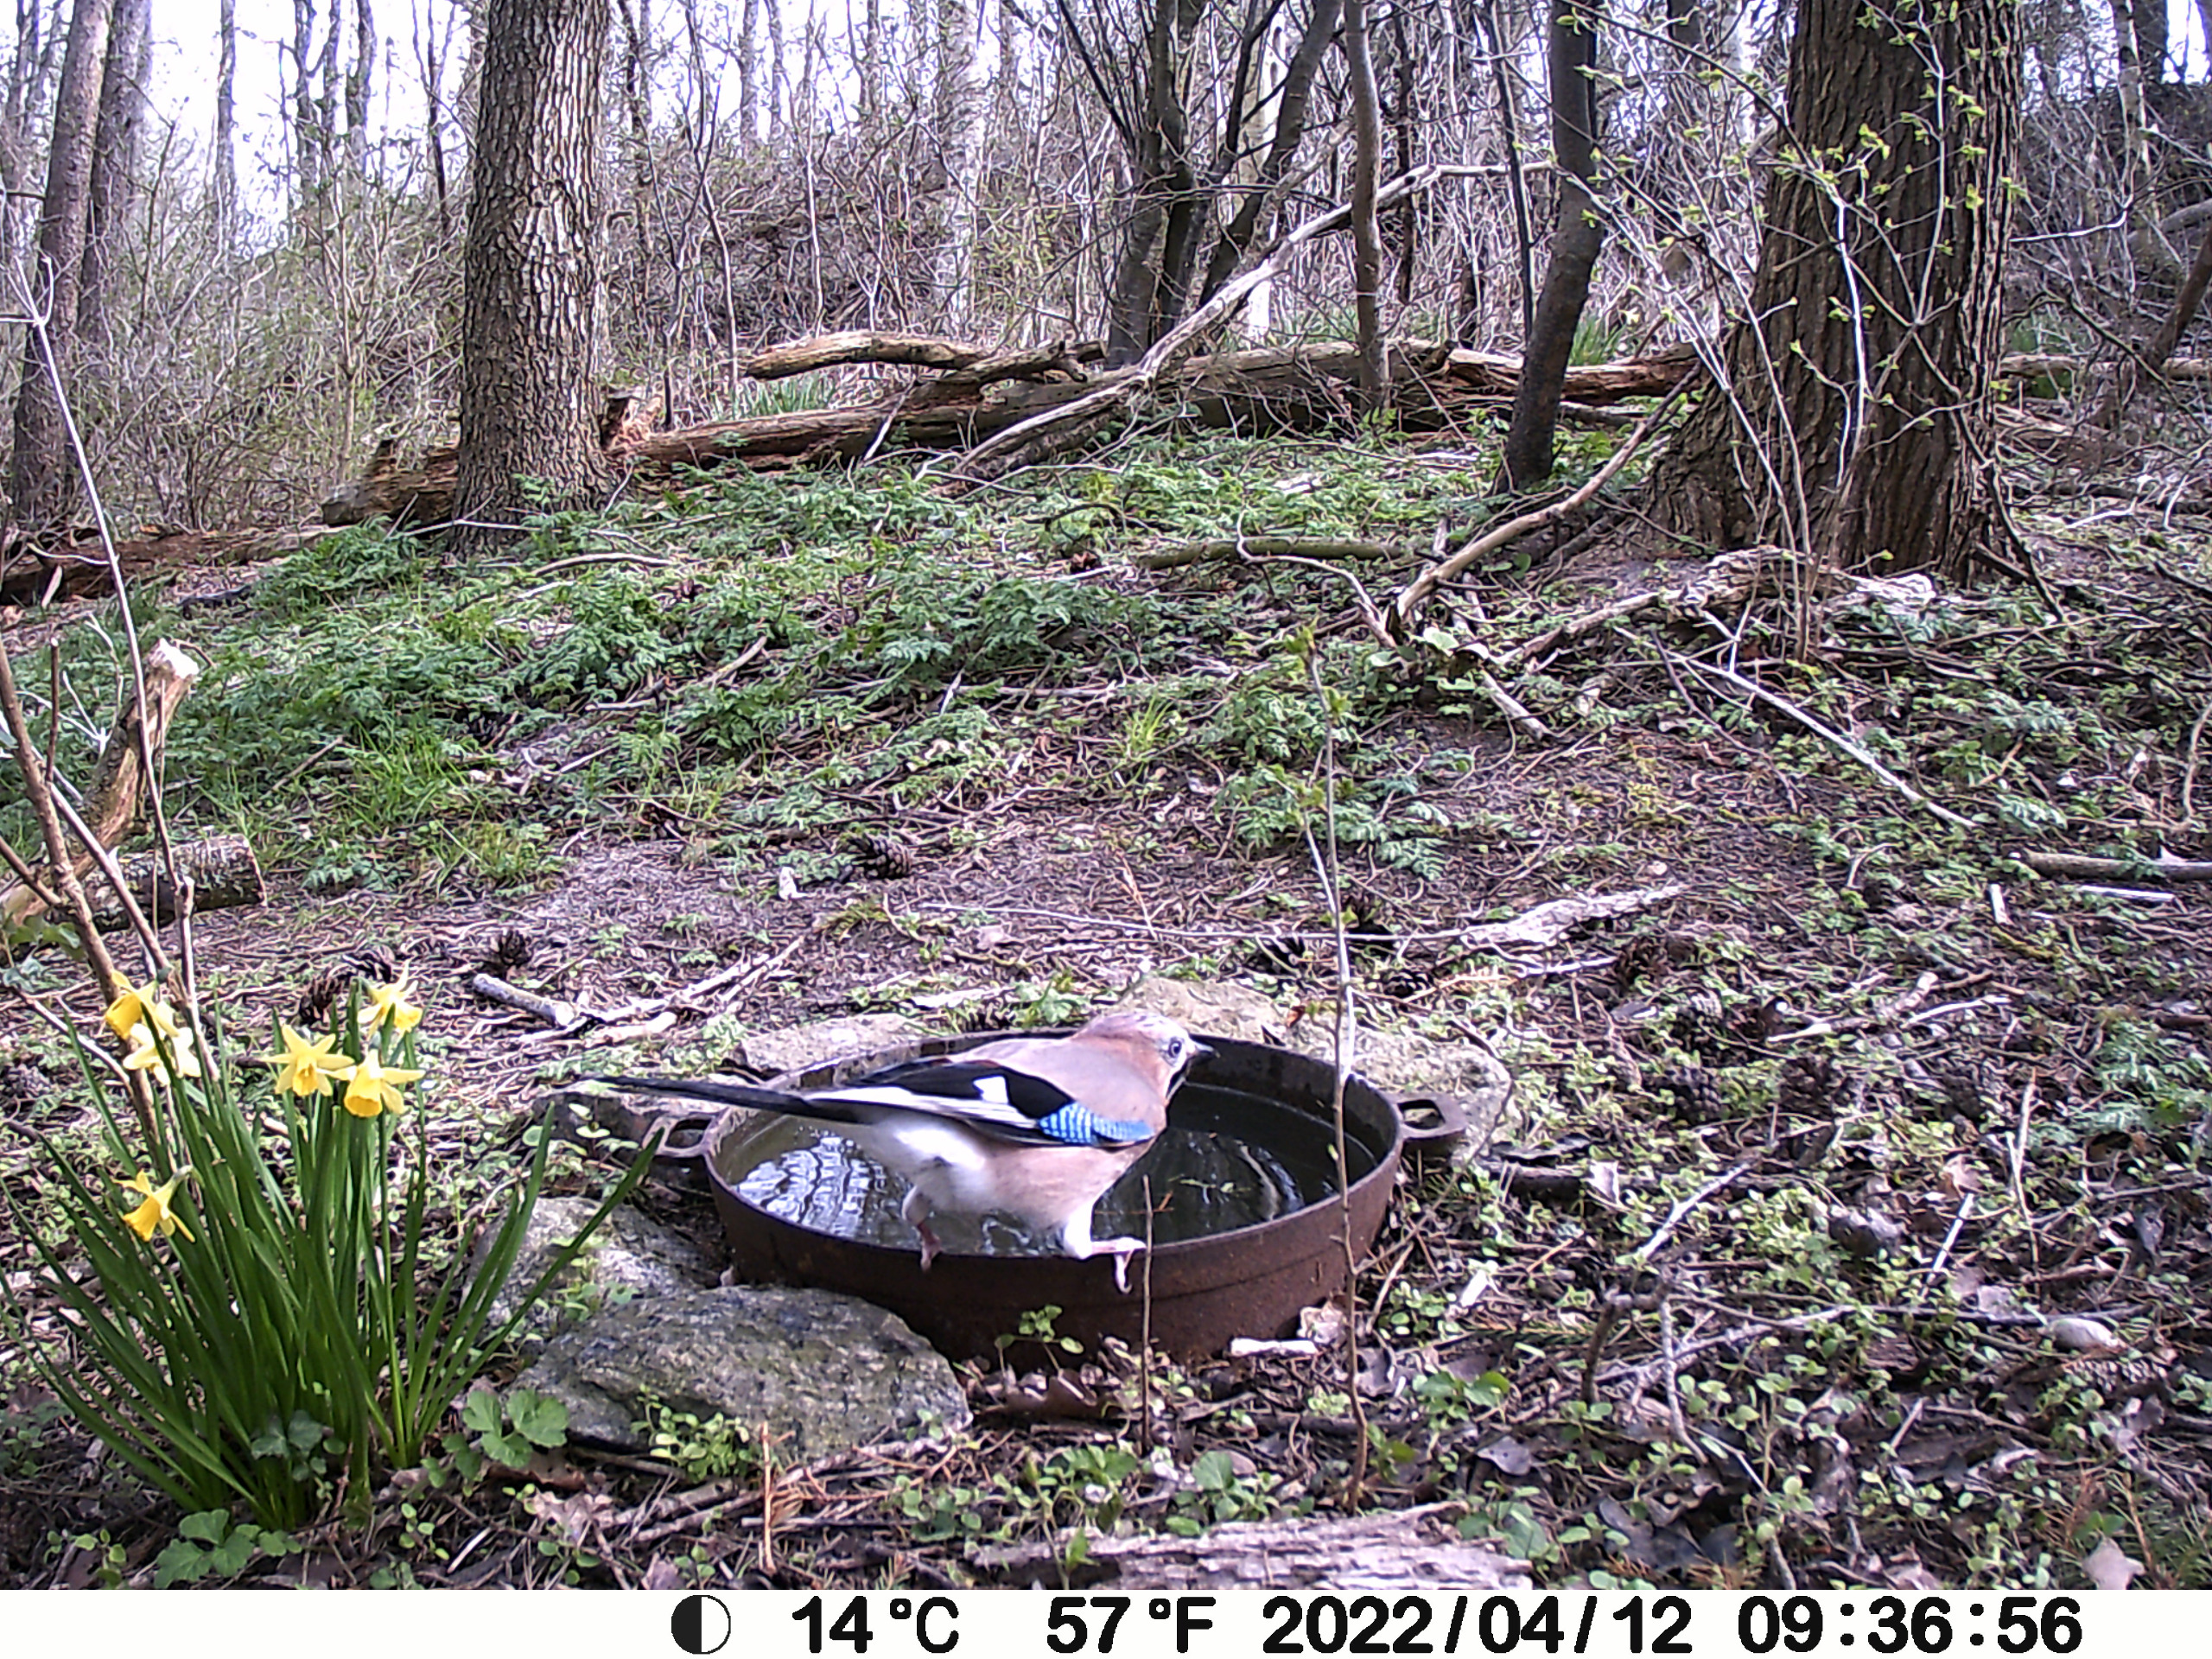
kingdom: Animalia
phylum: Chordata
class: Aves
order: Passeriformes
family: Corvidae
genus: Garrulus
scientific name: Garrulus glandarius
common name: Skovskade
